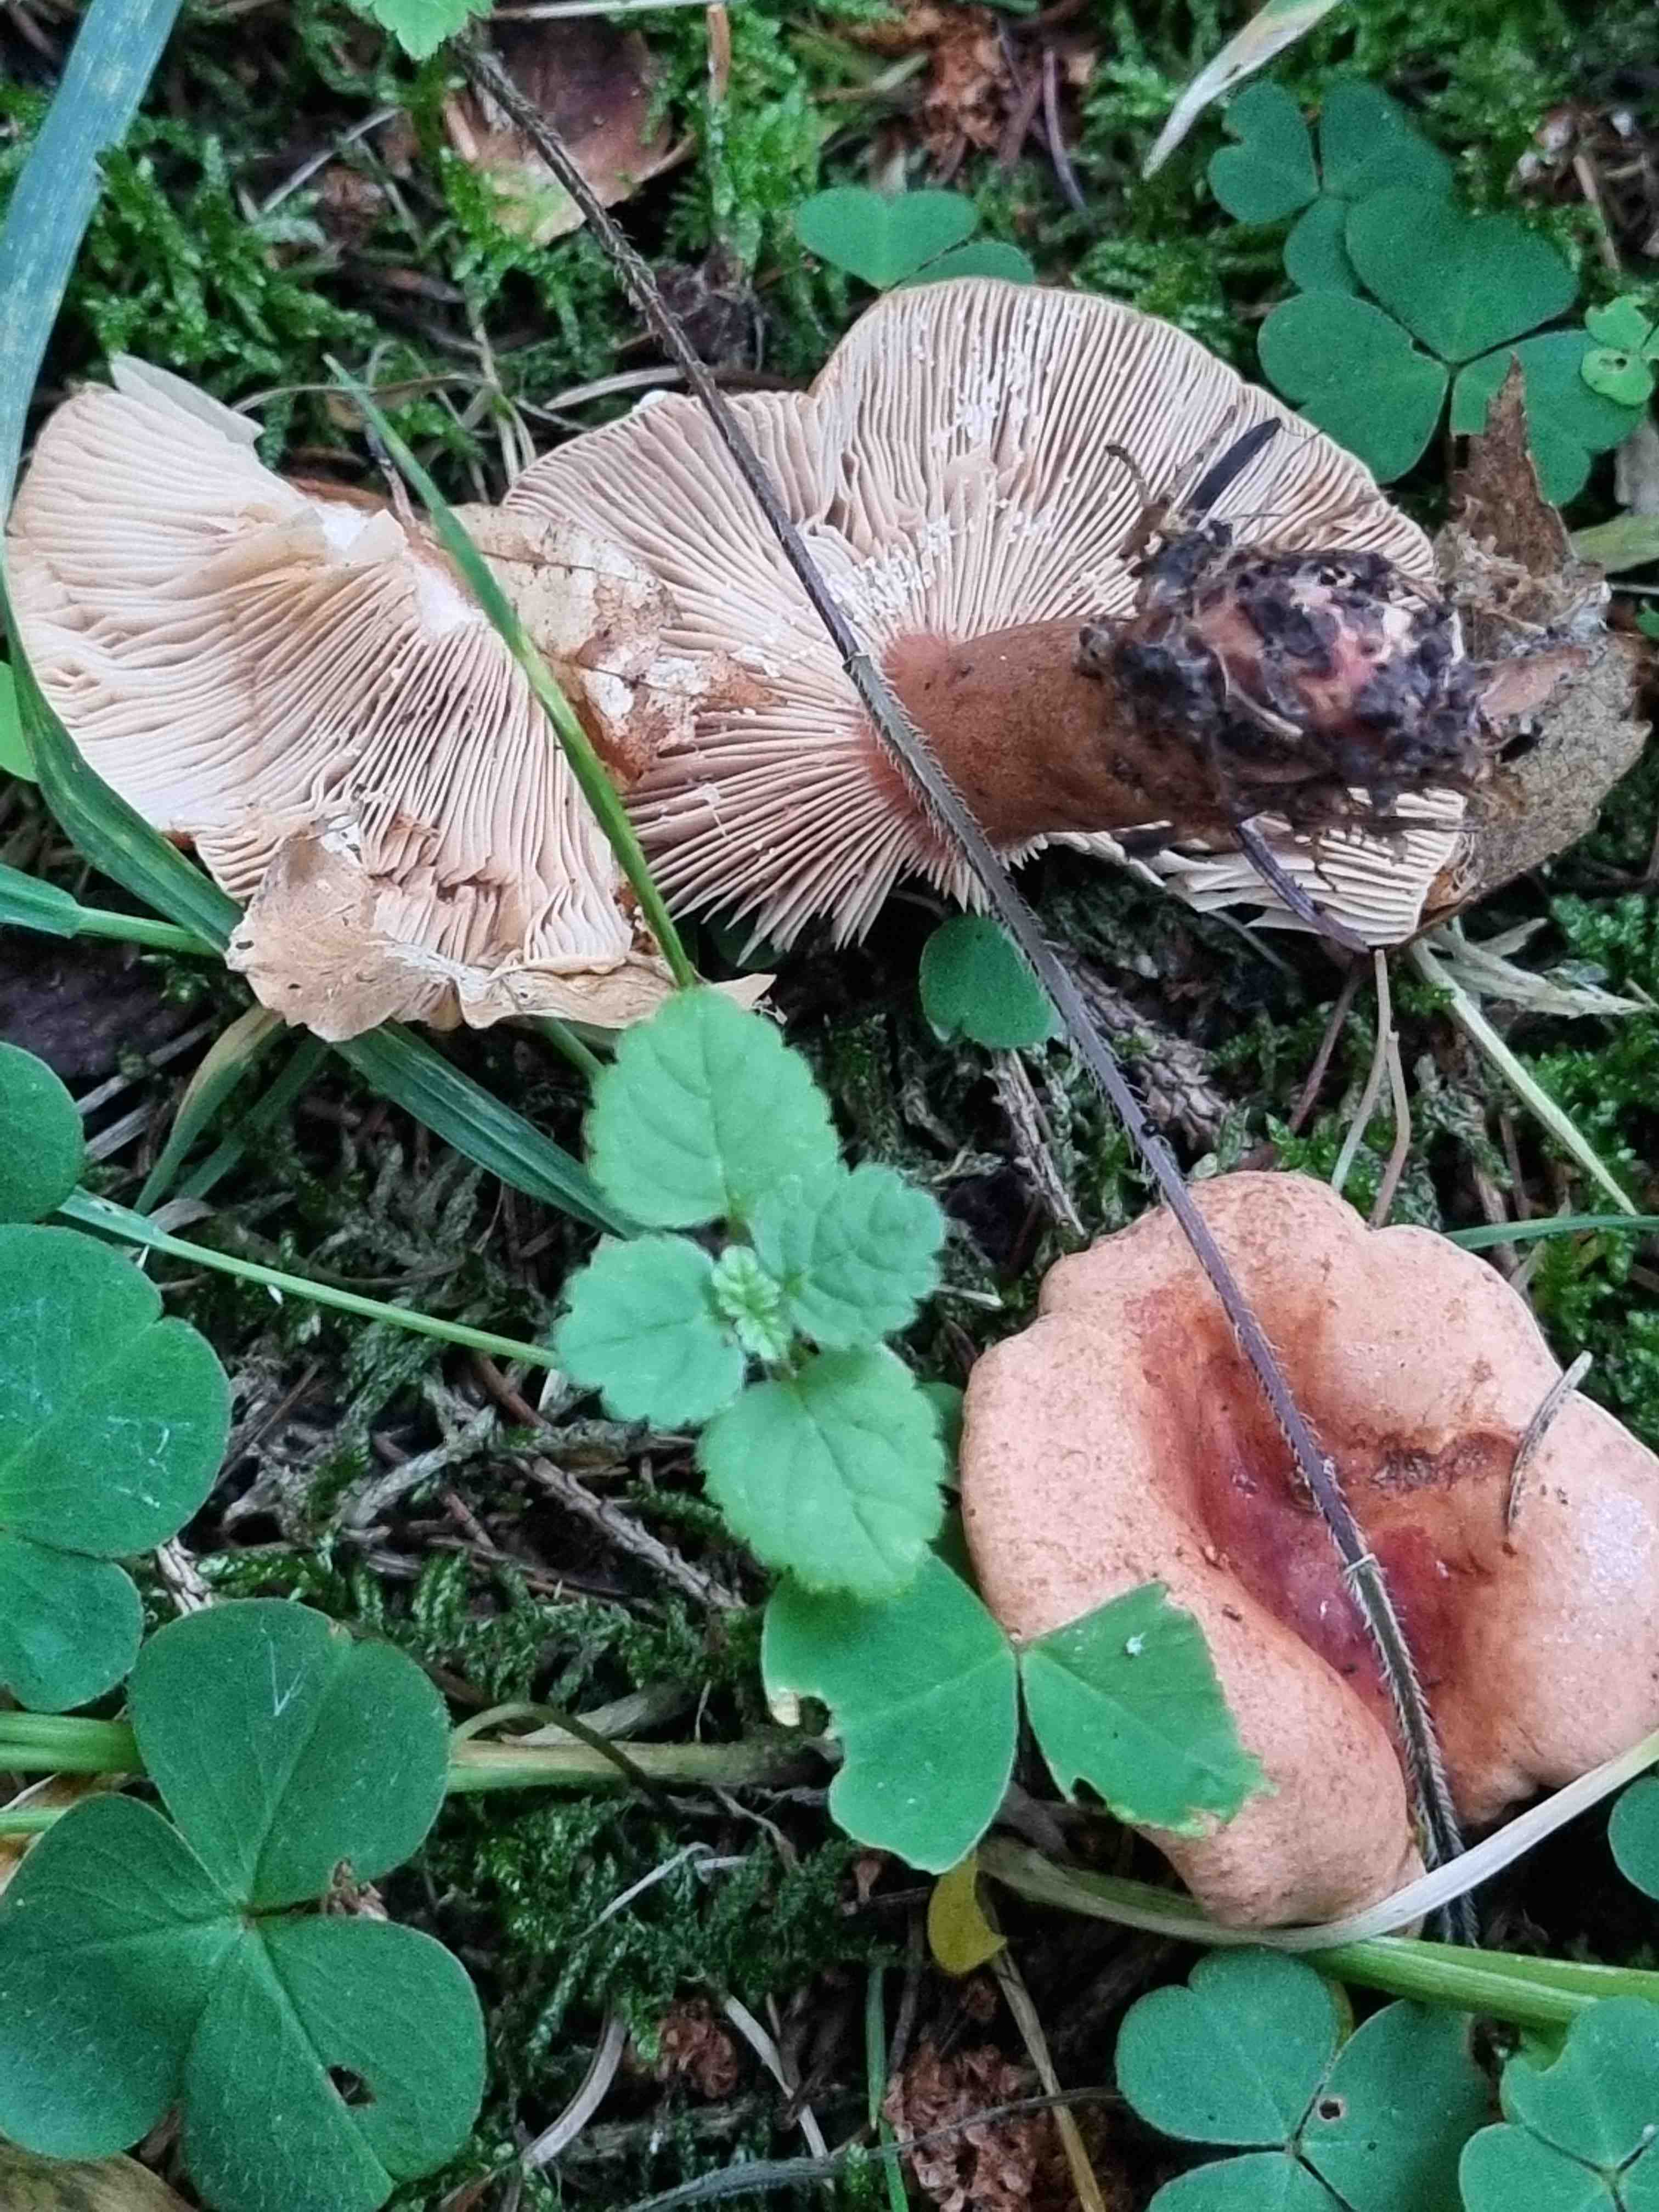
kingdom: Fungi
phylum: Basidiomycota
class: Agaricomycetes
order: Russulales
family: Russulaceae
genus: Lactarius
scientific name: Lactarius
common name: mælkehat
